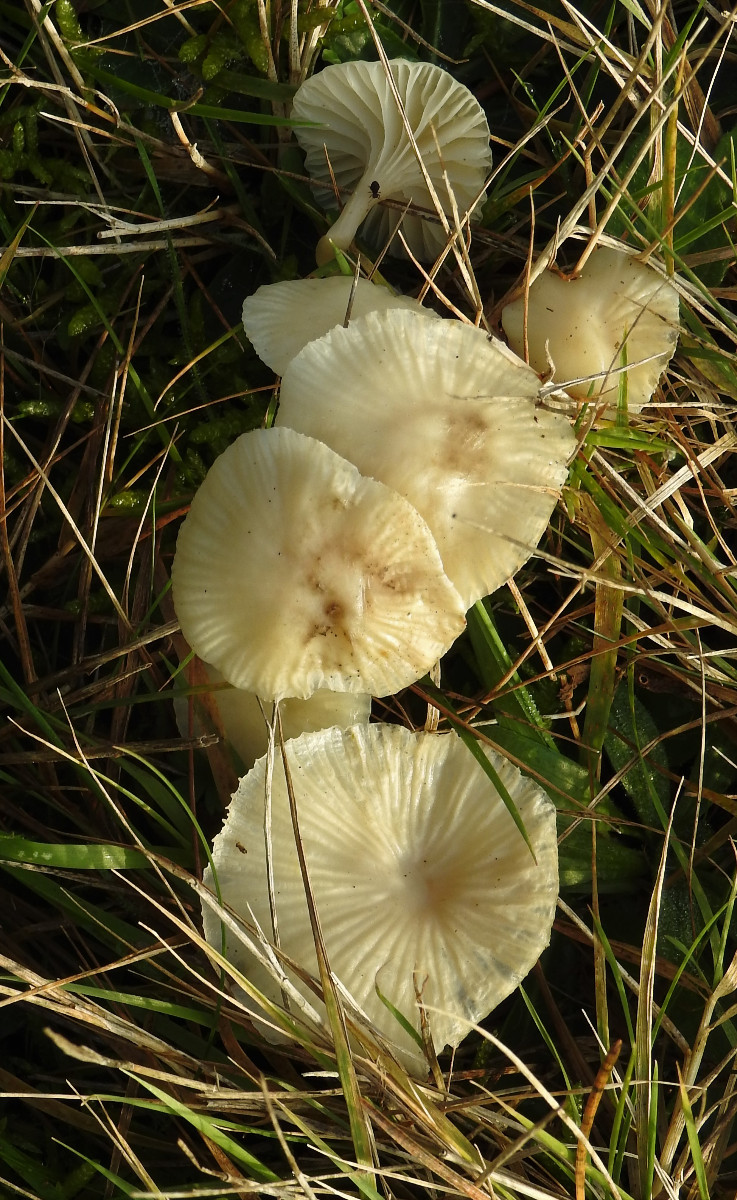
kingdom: Fungi
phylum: Basidiomycota
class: Agaricomycetes
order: Agaricales
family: Hygrophoraceae
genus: Cuphophyllus
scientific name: Cuphophyllus virgineus
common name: snehvid vokshat
